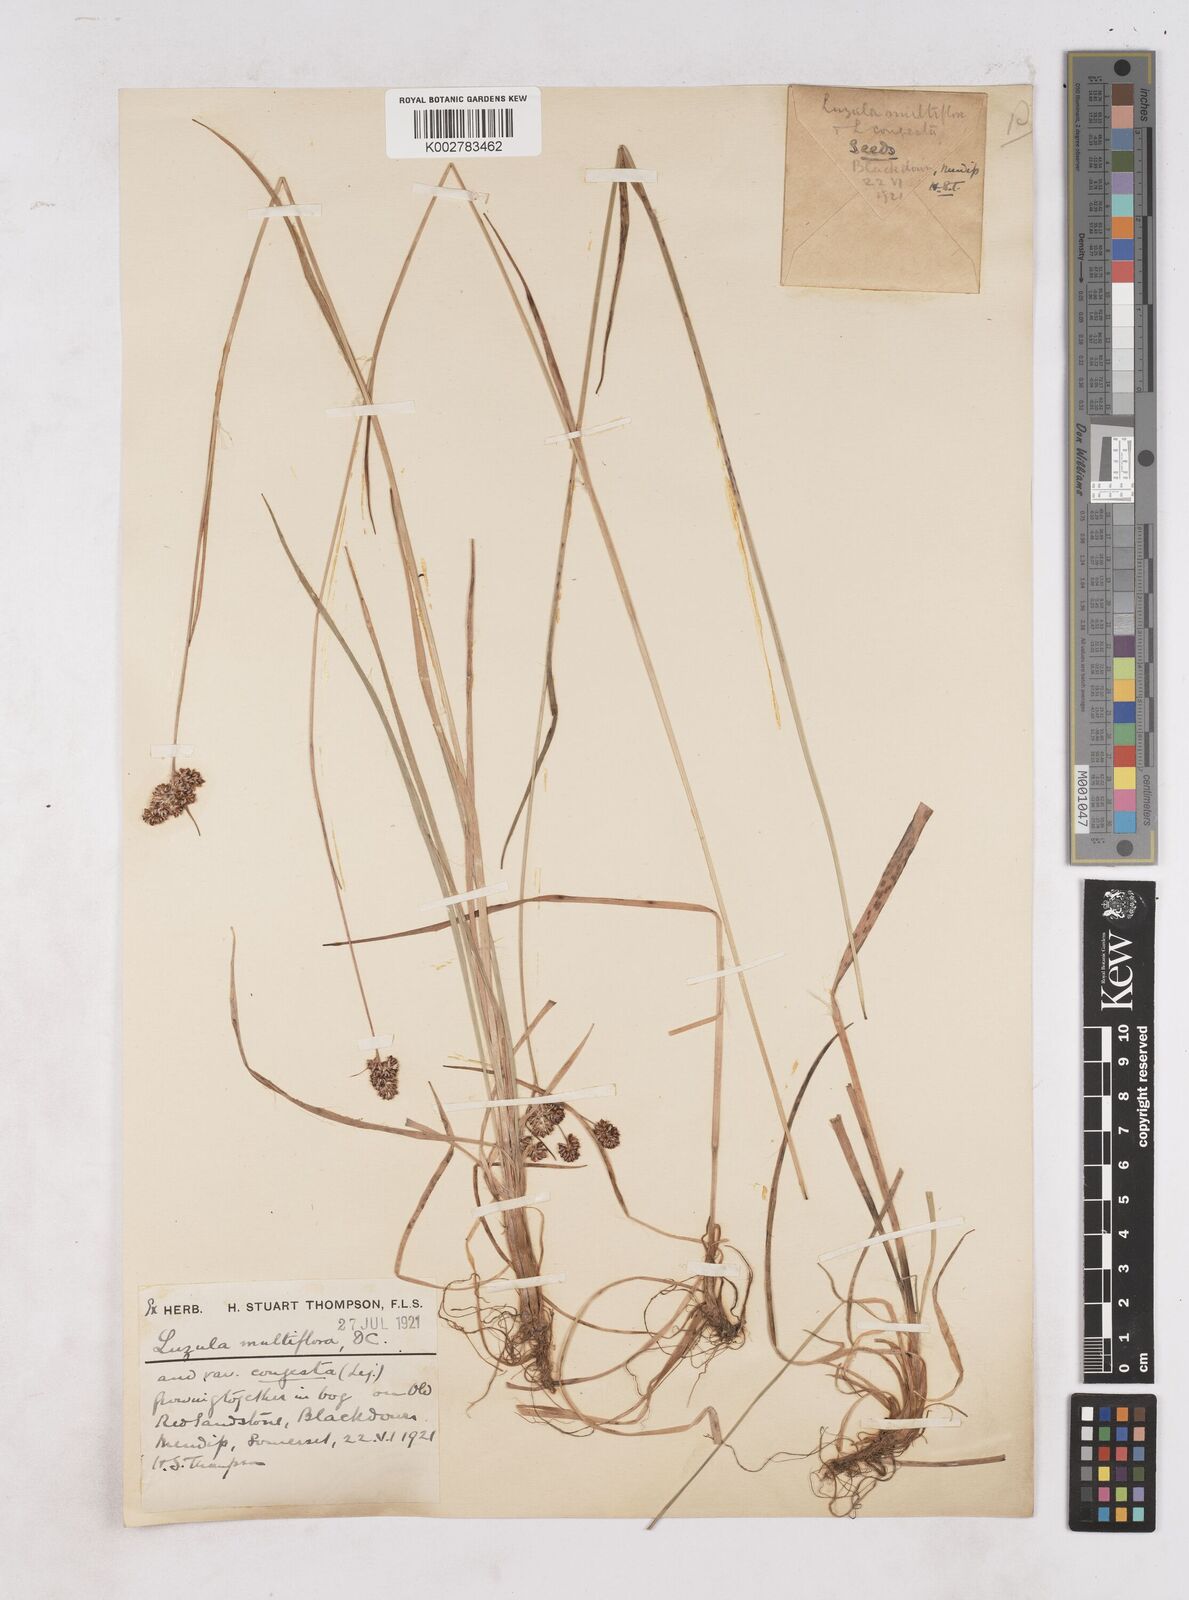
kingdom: Plantae
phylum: Tracheophyta
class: Liliopsida
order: Poales
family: Juncaceae
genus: Luzula
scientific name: Luzula campestris
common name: Field wood-rush
